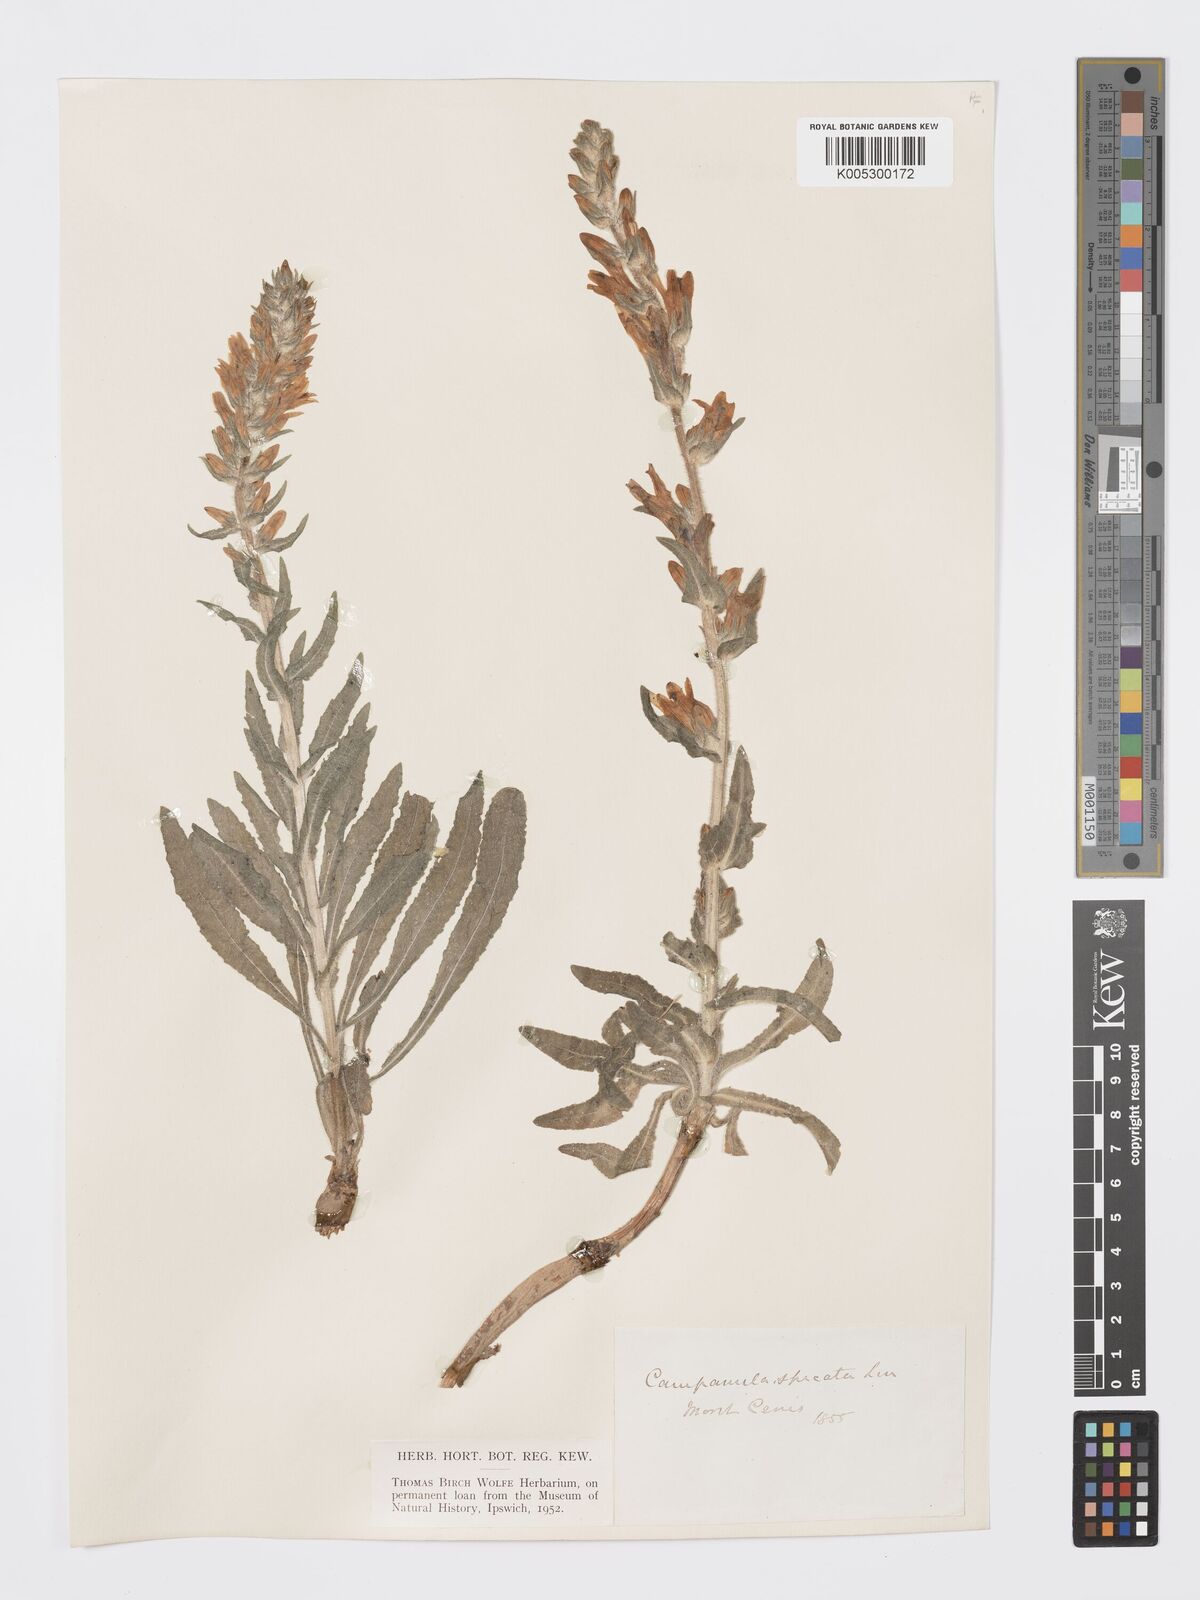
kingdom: Plantae
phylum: Tracheophyta
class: Magnoliopsida
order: Asterales
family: Campanulaceae
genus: Campanula
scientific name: Campanula spicata
